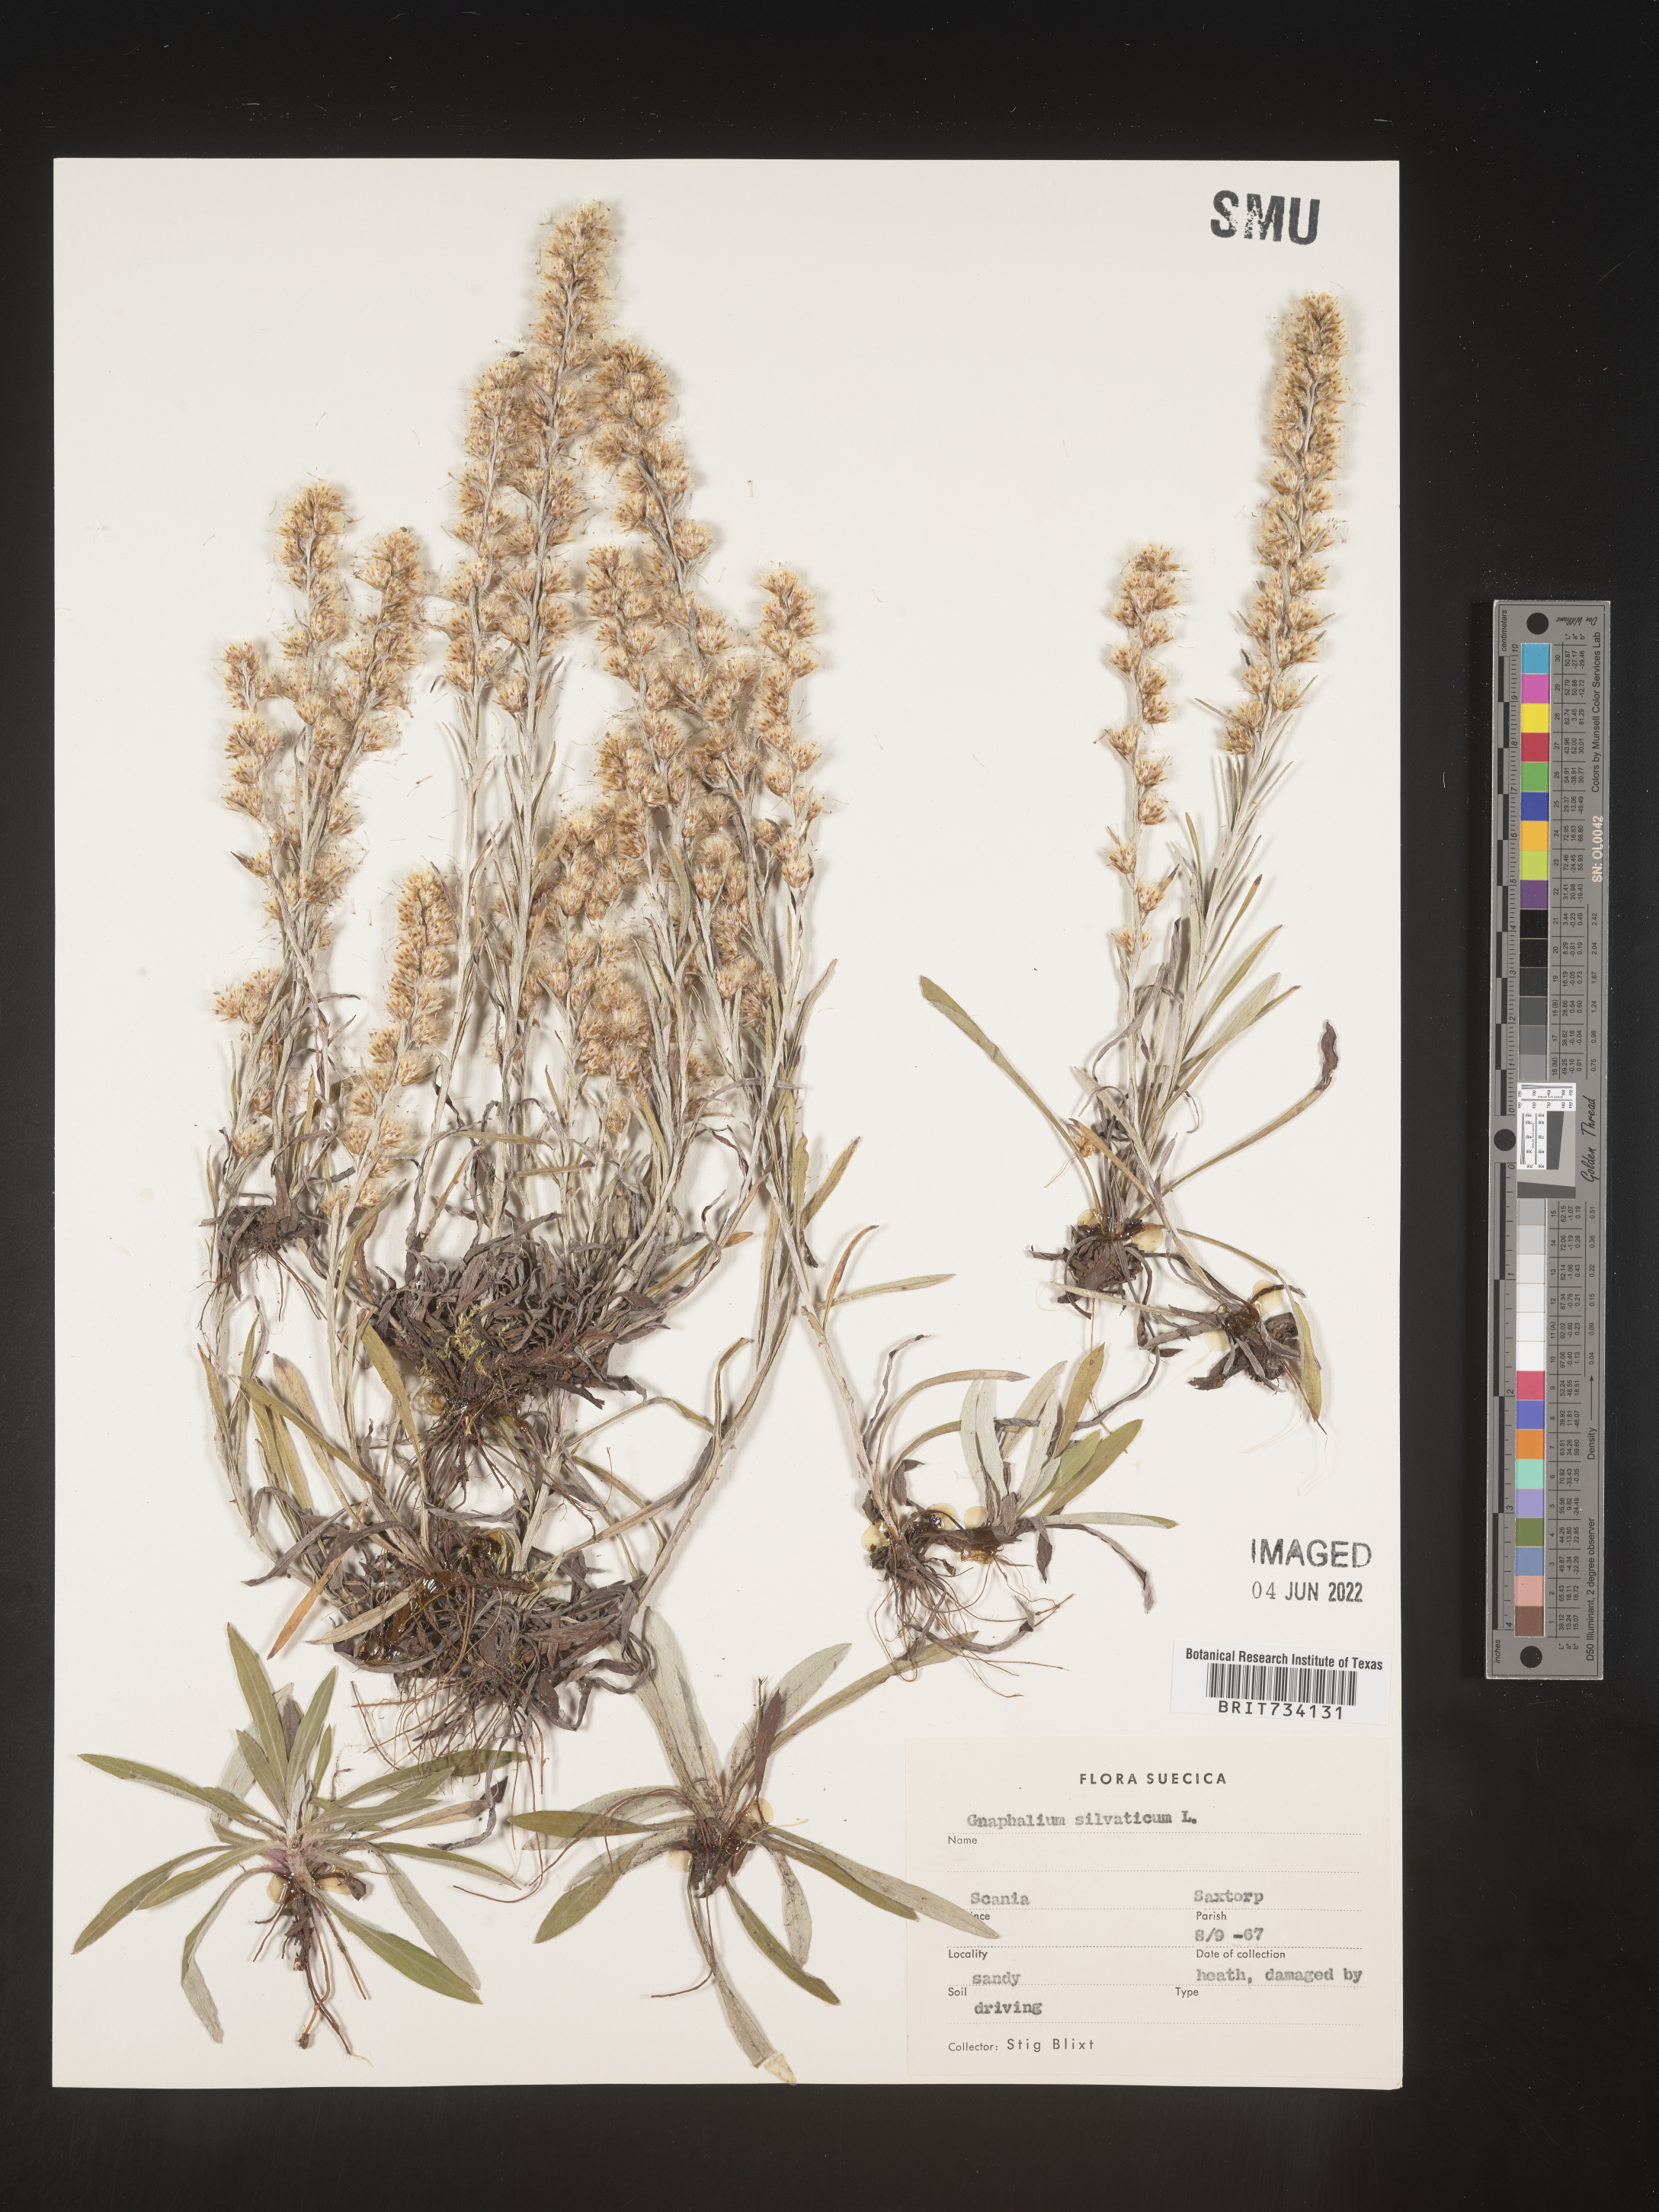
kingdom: Plantae
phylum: Tracheophyta
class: Magnoliopsida
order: Asterales
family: Asteraceae
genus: Omalotheca
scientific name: Omalotheca sylvatica
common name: Heath cudweed
